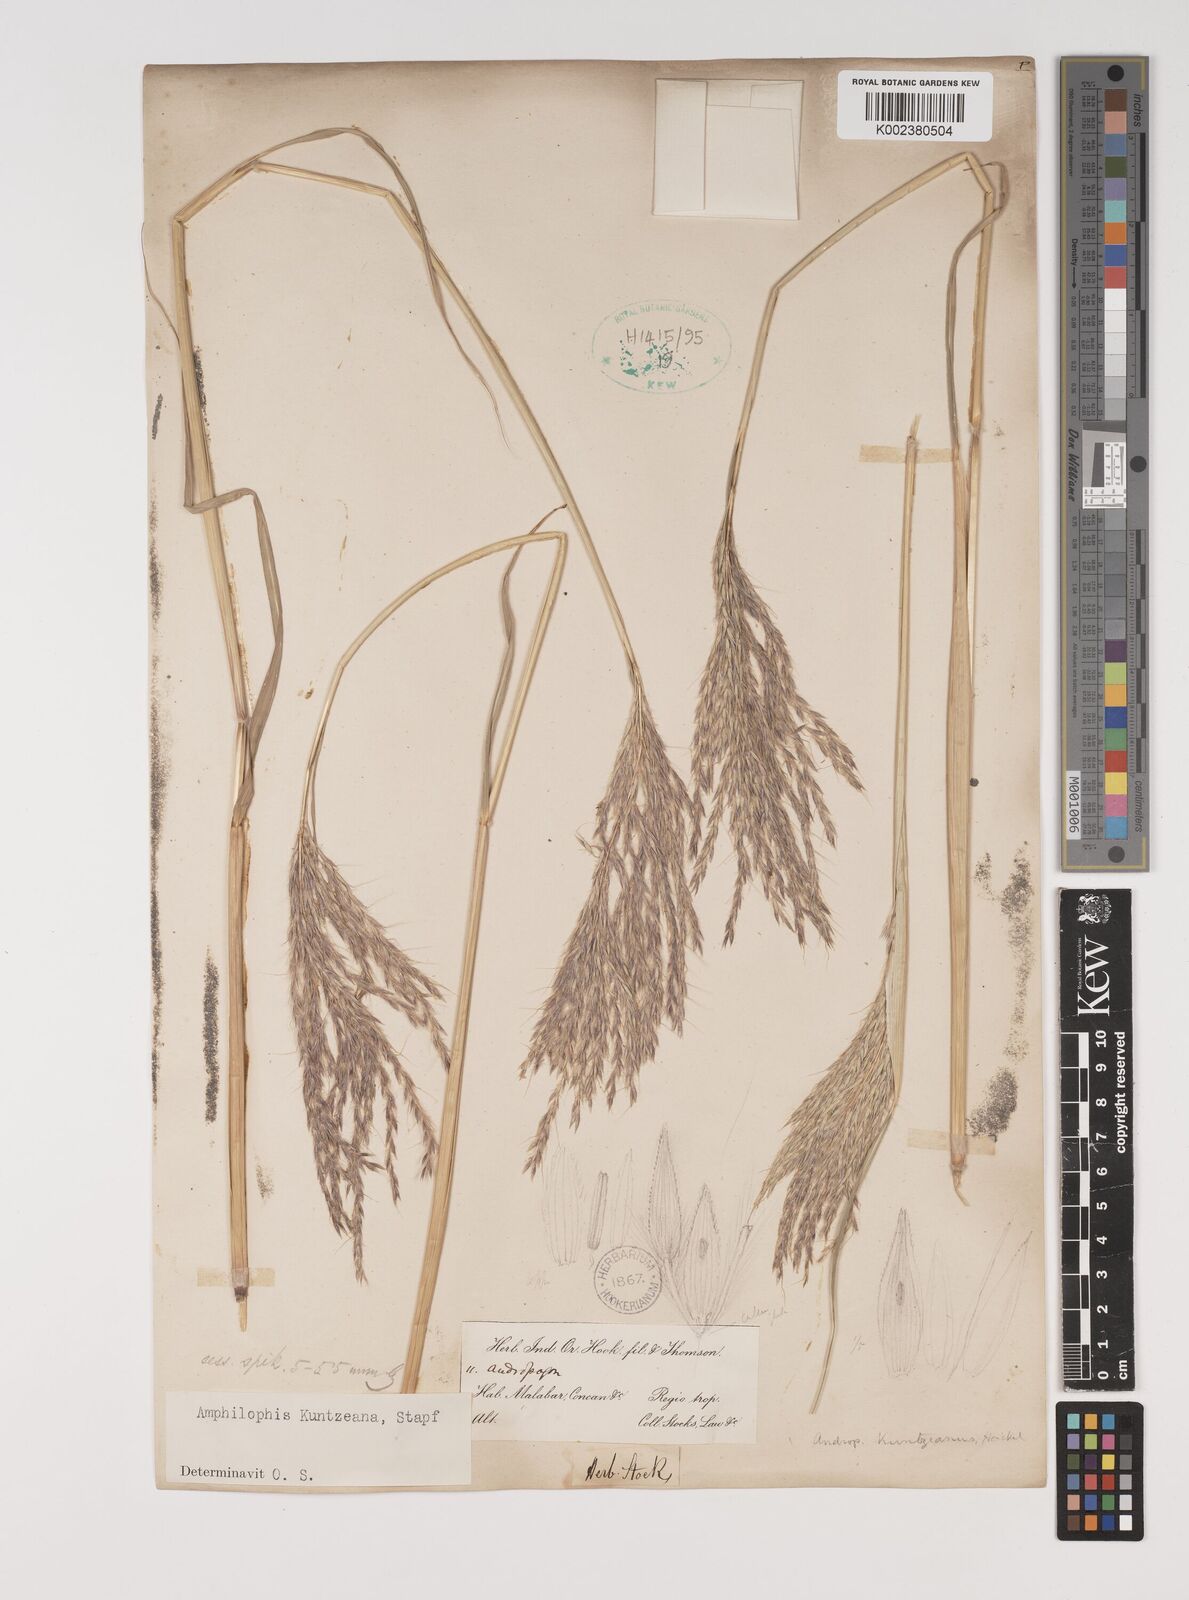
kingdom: Plantae
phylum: Tracheophyta
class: Liliopsida
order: Poales
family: Poaceae
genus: Bothriochloa
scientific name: Bothriochloa kuntzeana
